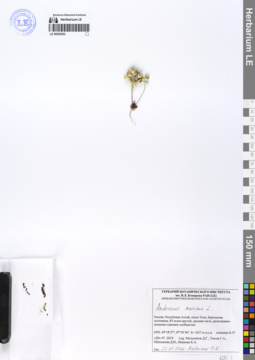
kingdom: Plantae
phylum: Tracheophyta
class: Magnoliopsida
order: Ericales
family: Primulaceae
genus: Androsace
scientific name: Androsace maxima
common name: Annual androsace
